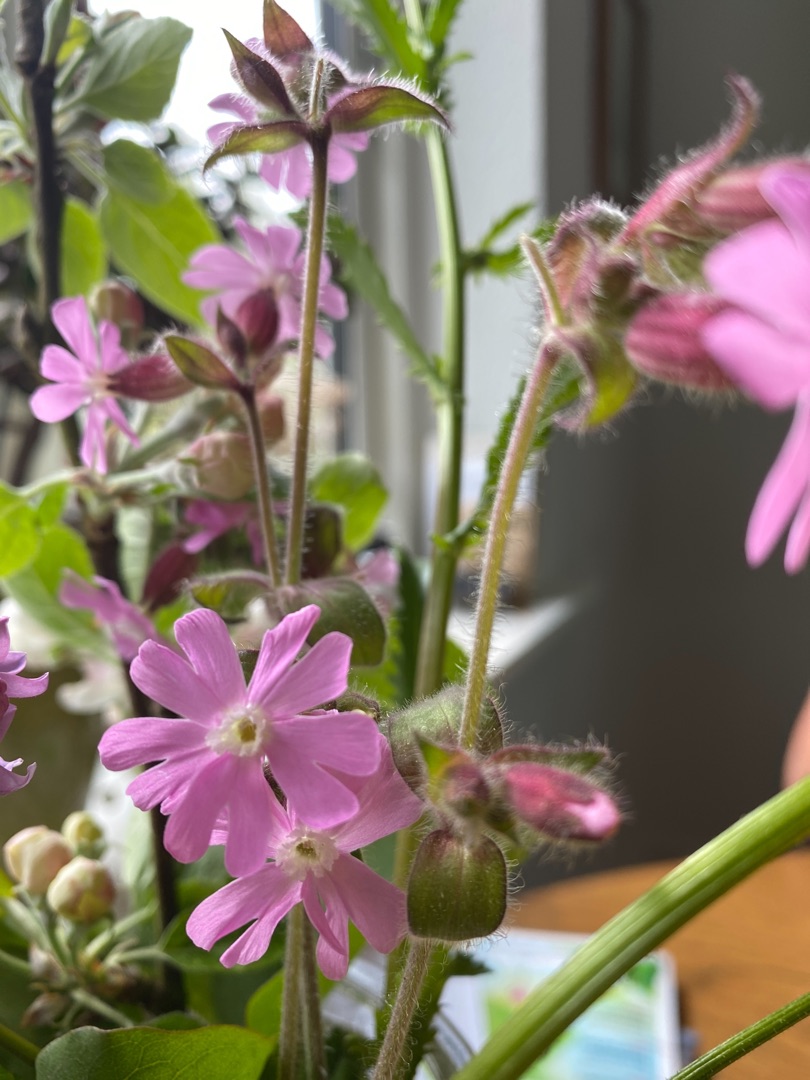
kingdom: Plantae
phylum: Tracheophyta
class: Magnoliopsida
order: Caryophyllales
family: Caryophyllaceae
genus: Silene
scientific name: Silene dioica
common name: Dagpragtstjerne
